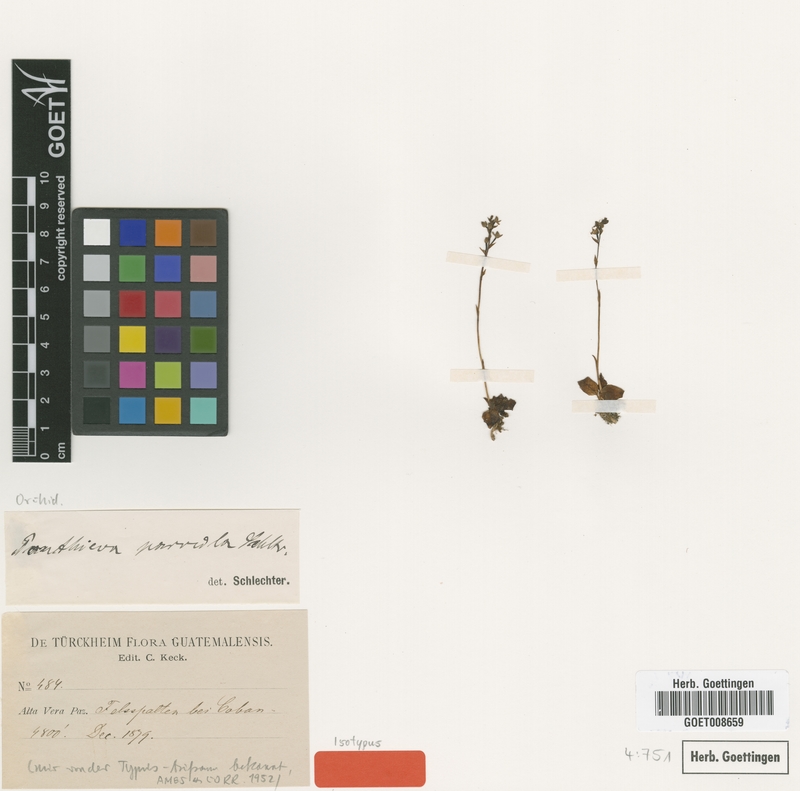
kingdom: Plantae
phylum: Tracheophyta
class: Liliopsida
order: Asparagales
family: Orchidaceae
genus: Ponthieva
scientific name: Ponthieva parvula
